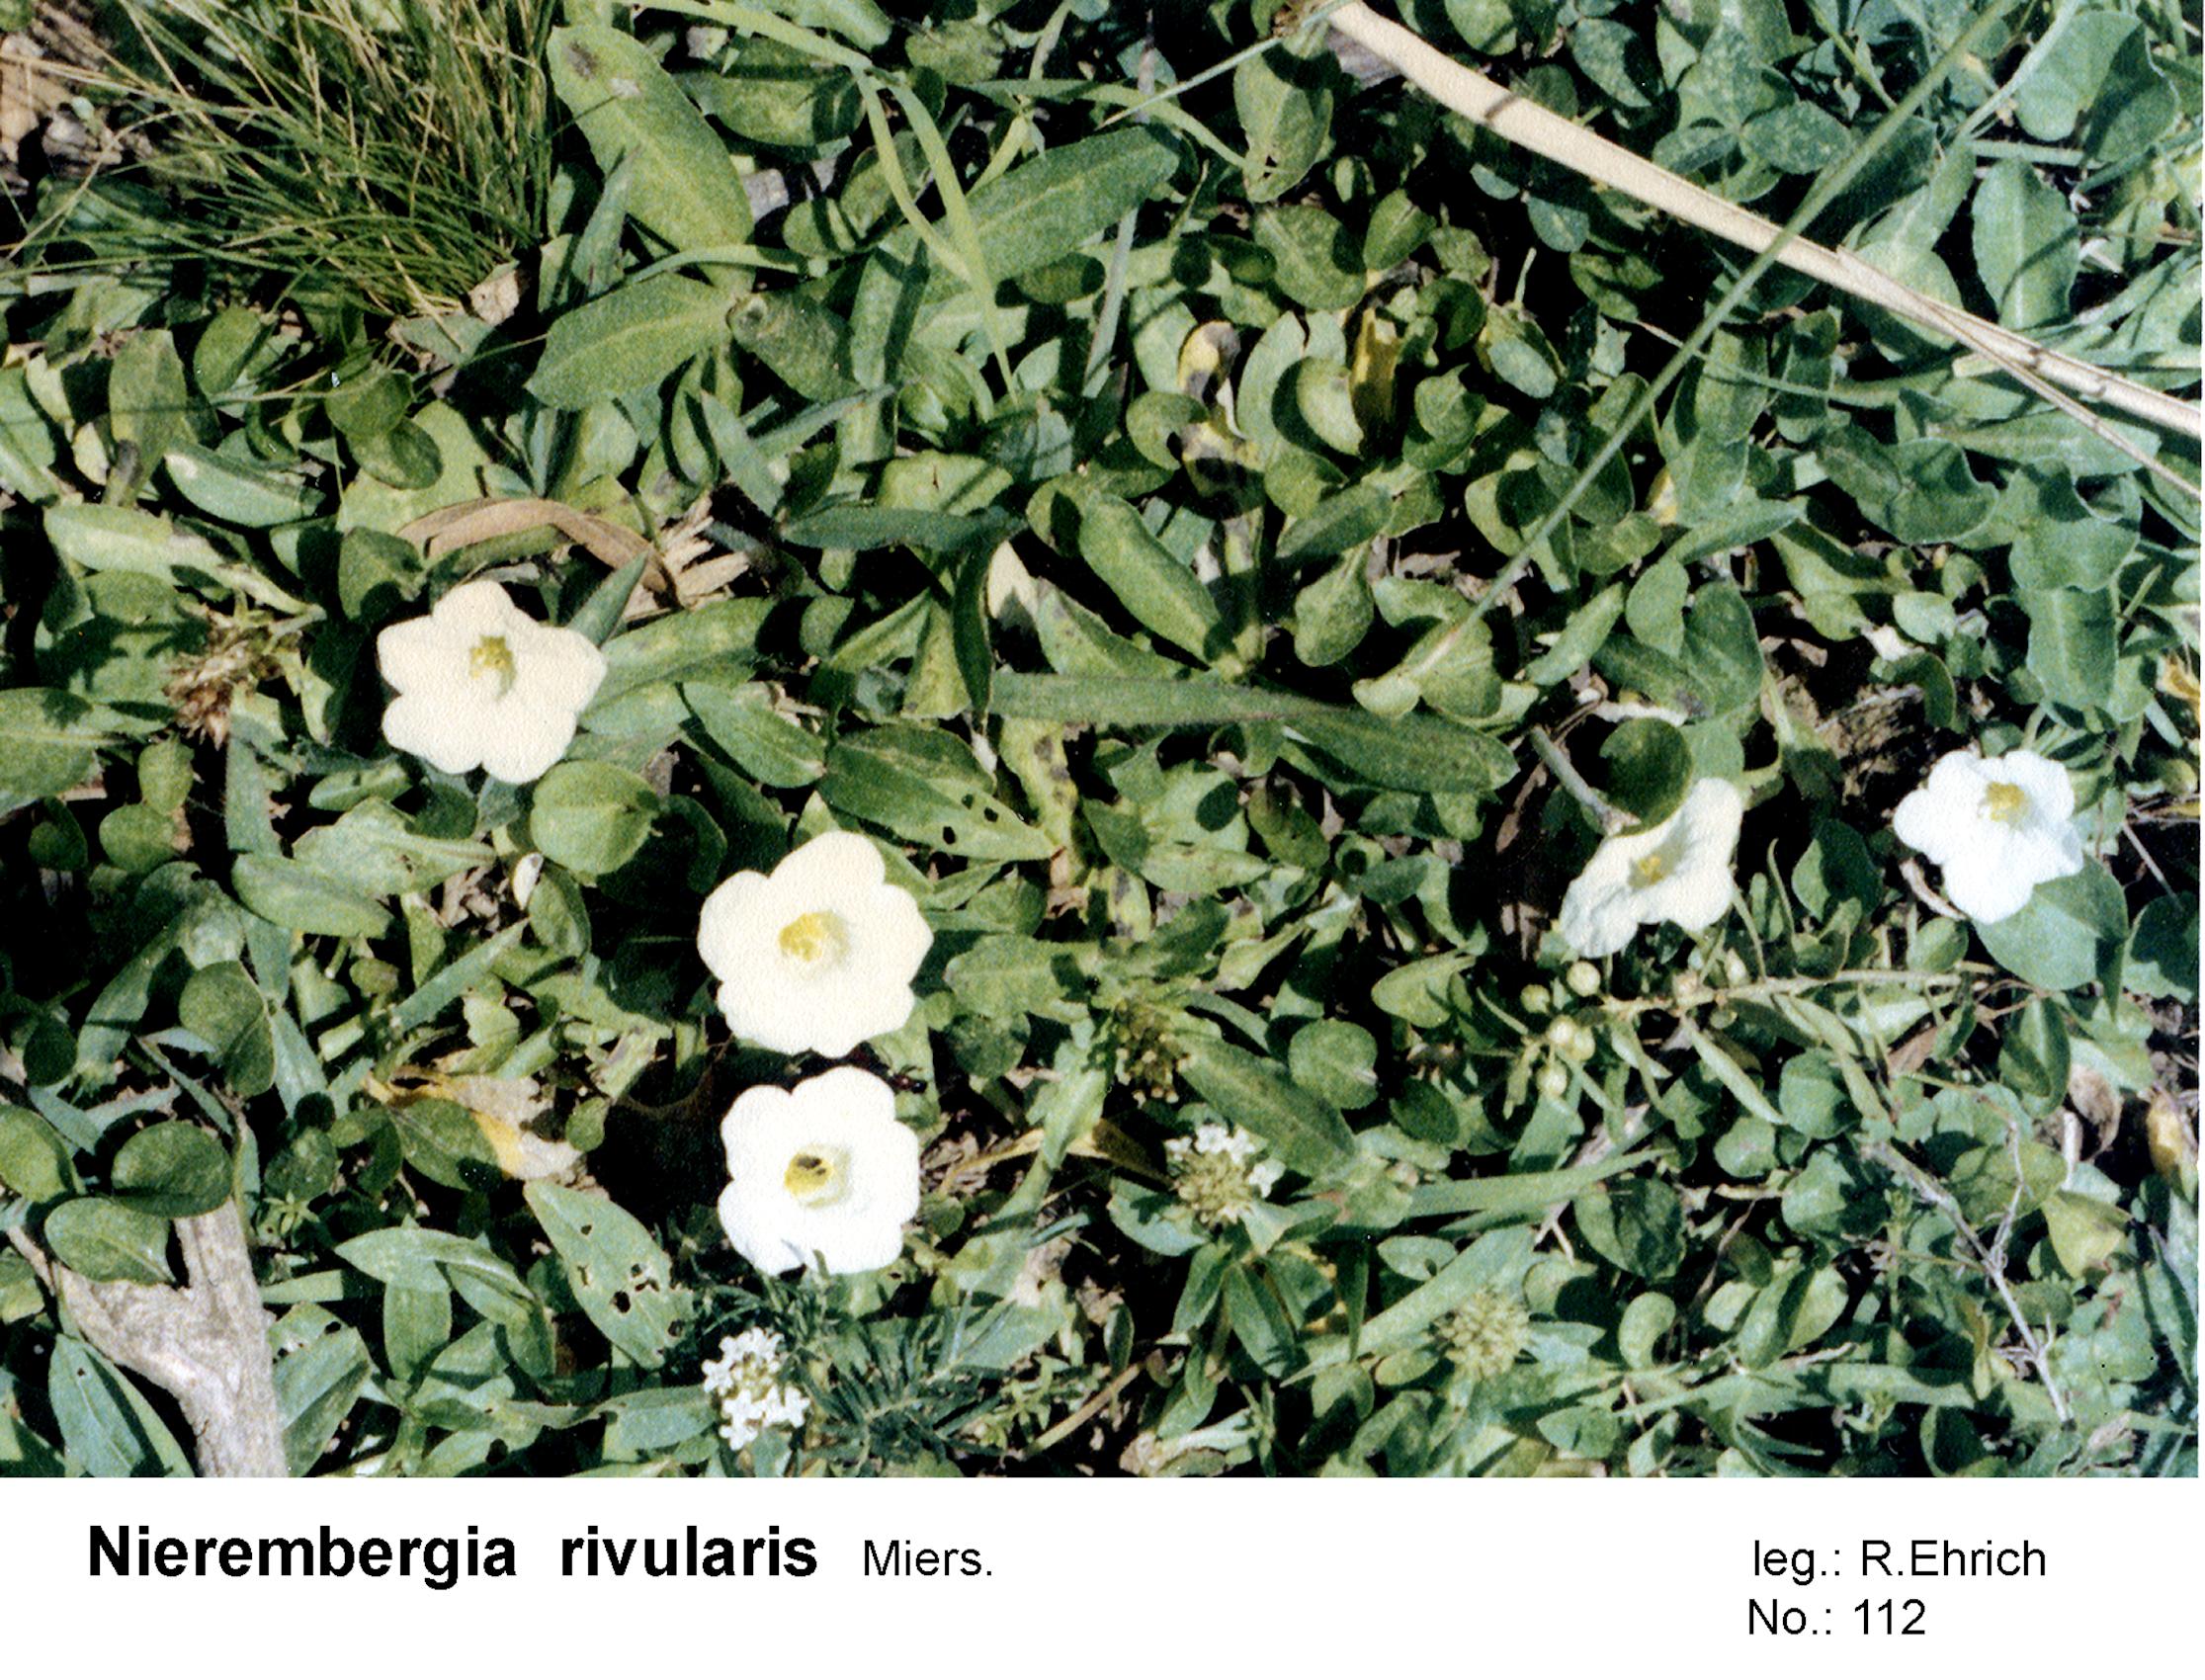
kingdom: Plantae
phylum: Tracheophyta
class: Magnoliopsida
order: Solanales
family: Solanaceae
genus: Nierembergia
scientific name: Nierembergia rivularis
